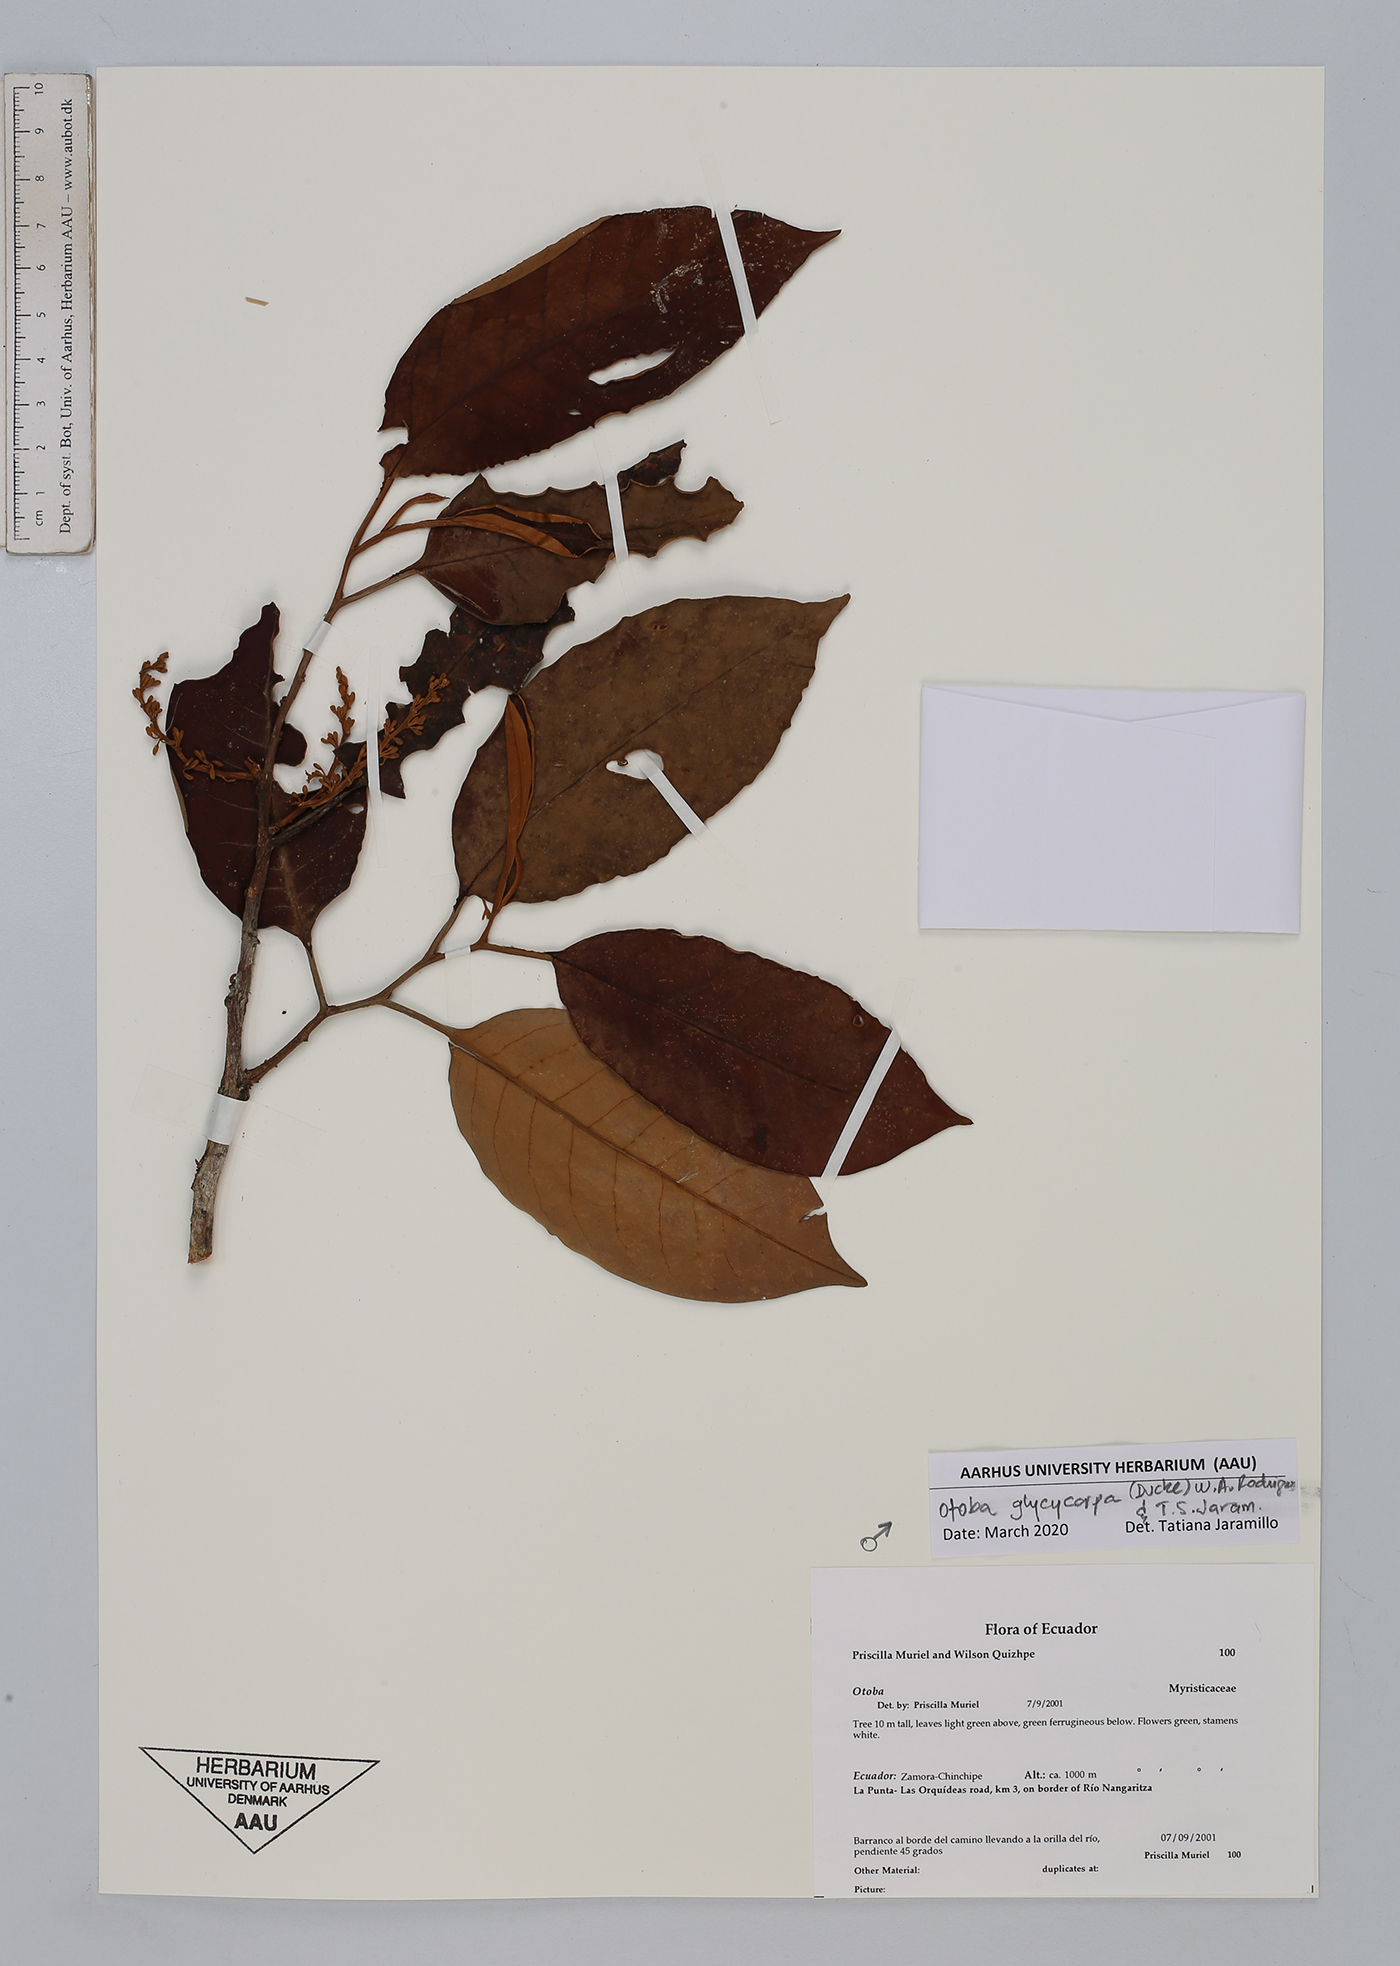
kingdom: Plantae
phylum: Tracheophyta
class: Magnoliopsida
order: Magnoliales
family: Myristicaceae
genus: Otoba
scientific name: Otoba glycycarpa
